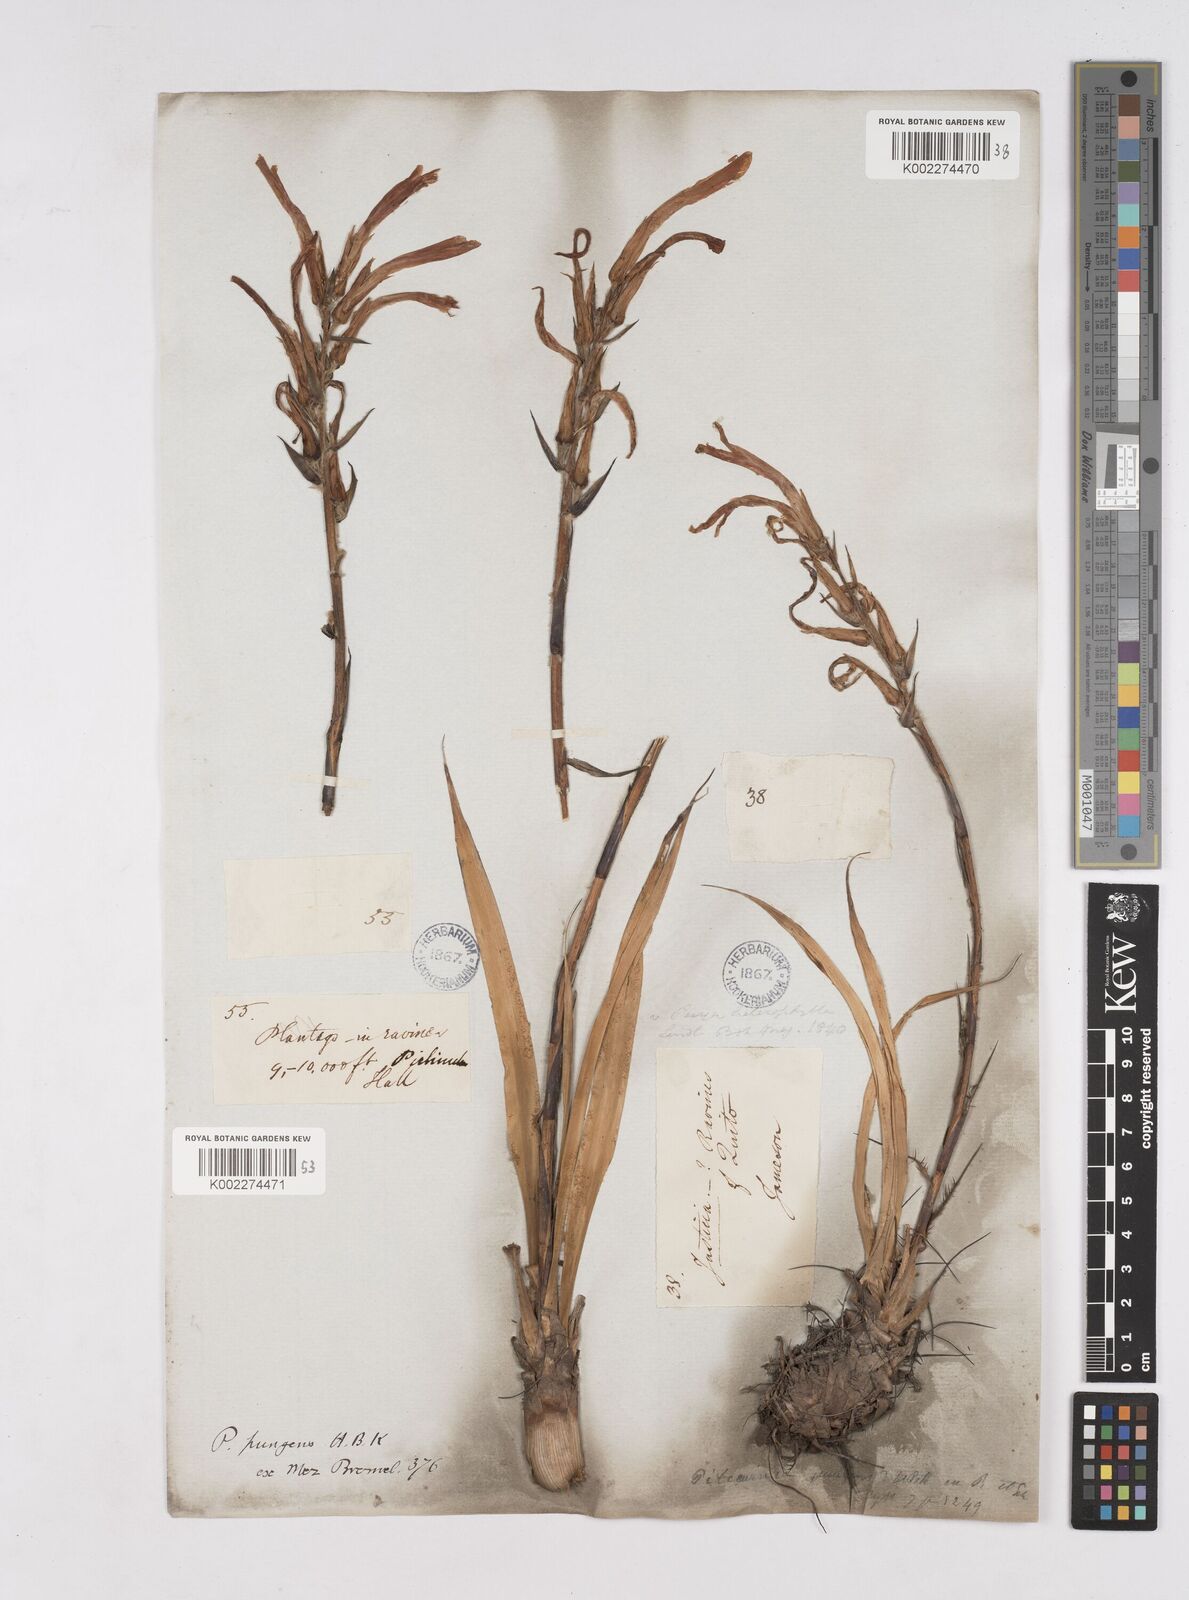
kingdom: Plantae
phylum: Tracheophyta
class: Liliopsida
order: Poales
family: Bromeliaceae
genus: Pitcairnia
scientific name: Pitcairnia pungens
